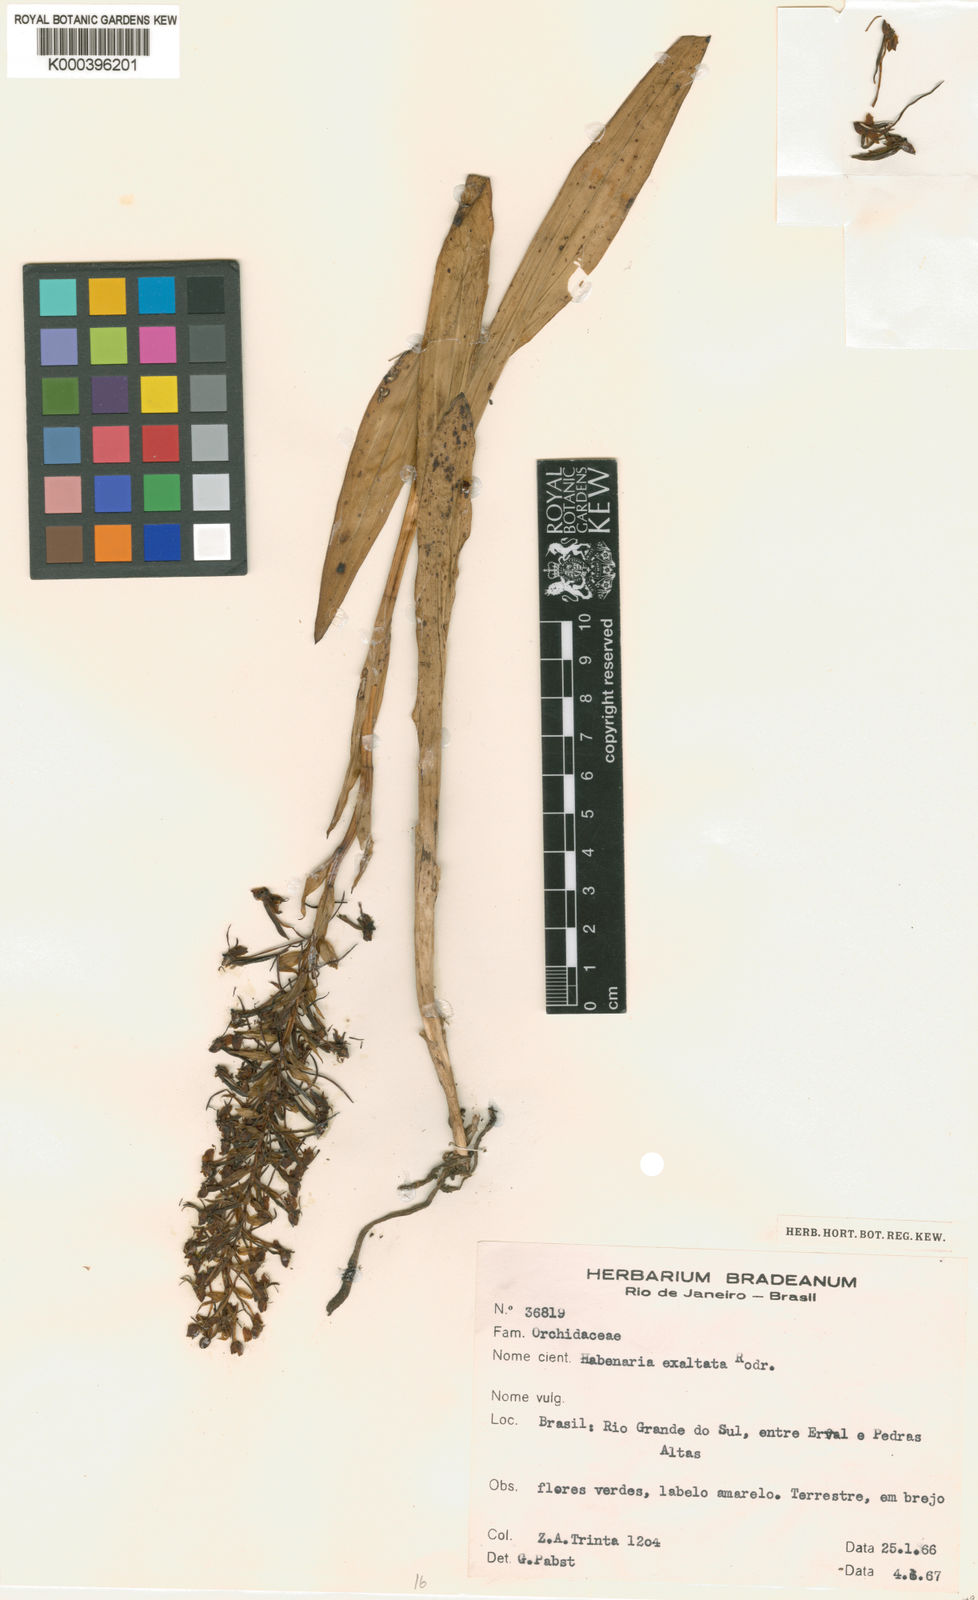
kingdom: Plantae
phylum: Tracheophyta
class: Liliopsida
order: Asparagales
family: Orchidaceae
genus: Habenaria
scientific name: Habenaria exaltata
